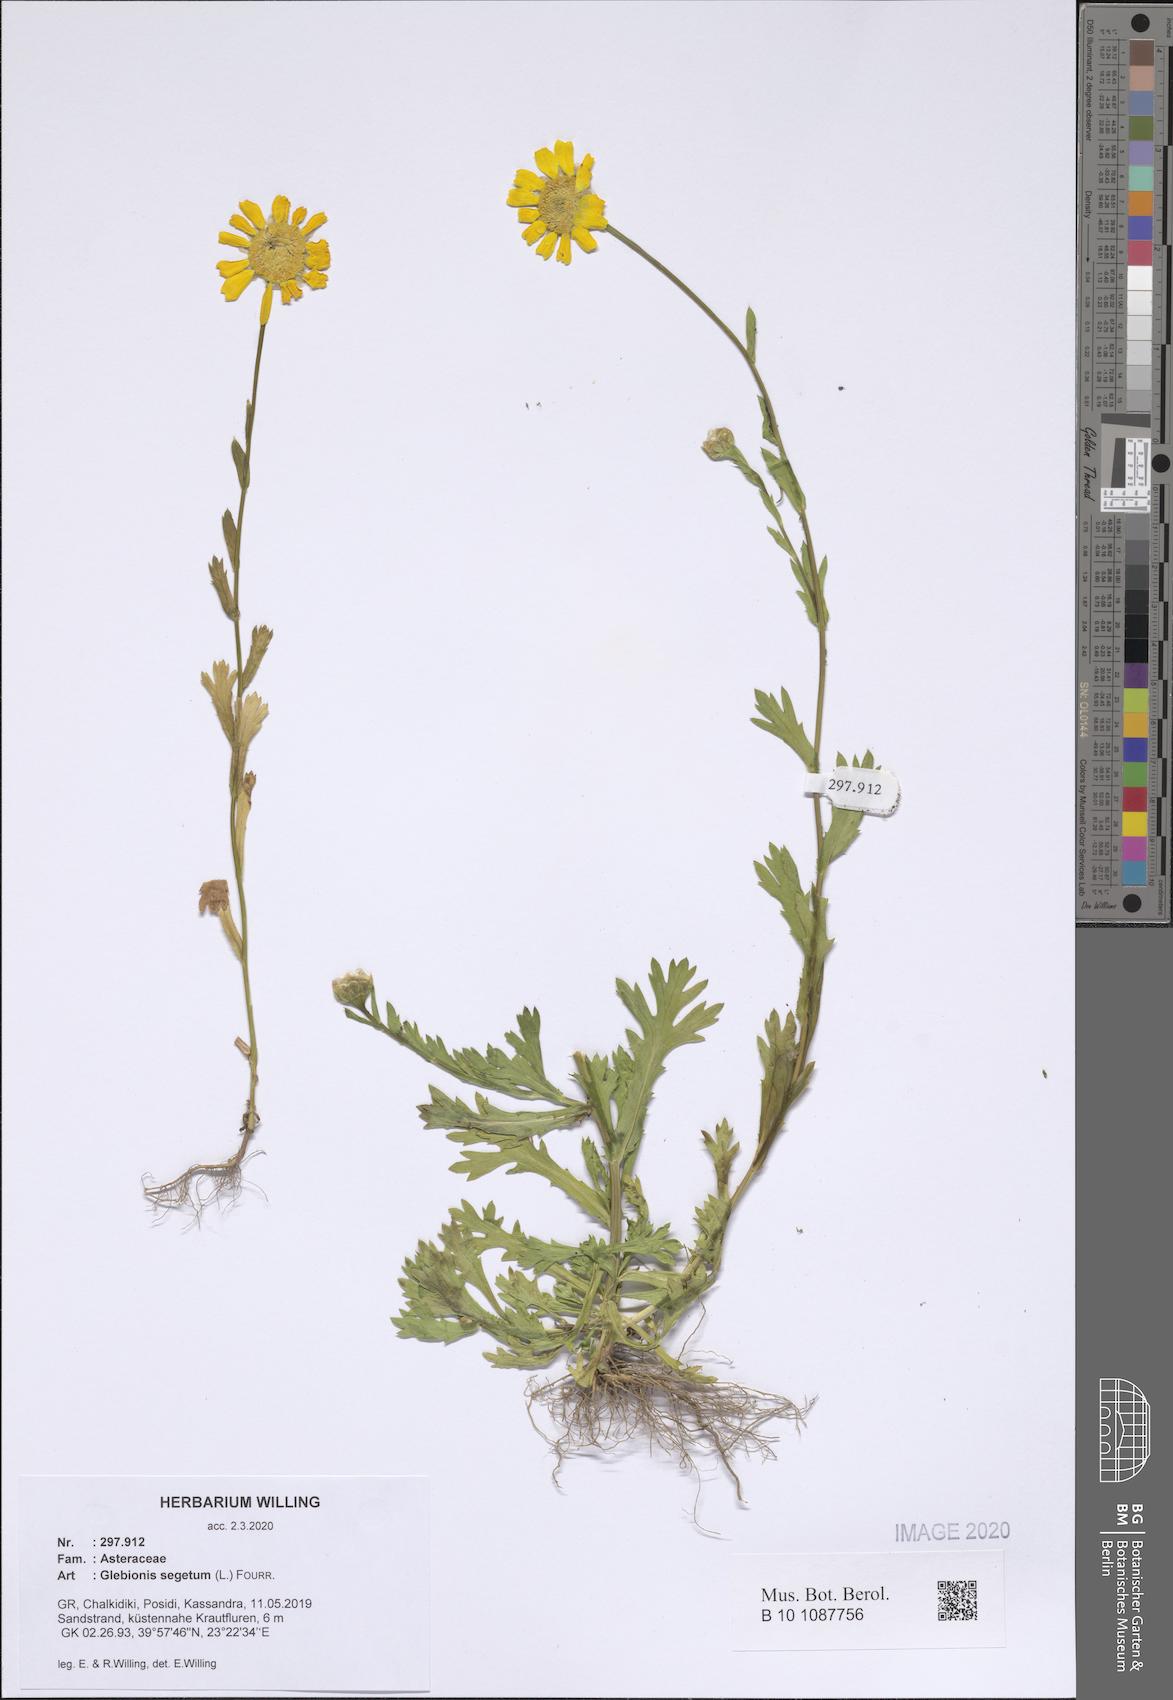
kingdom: Plantae
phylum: Tracheophyta
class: Magnoliopsida
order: Asterales
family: Asteraceae
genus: Glebionis
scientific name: Glebionis segetum
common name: Corndaisy
